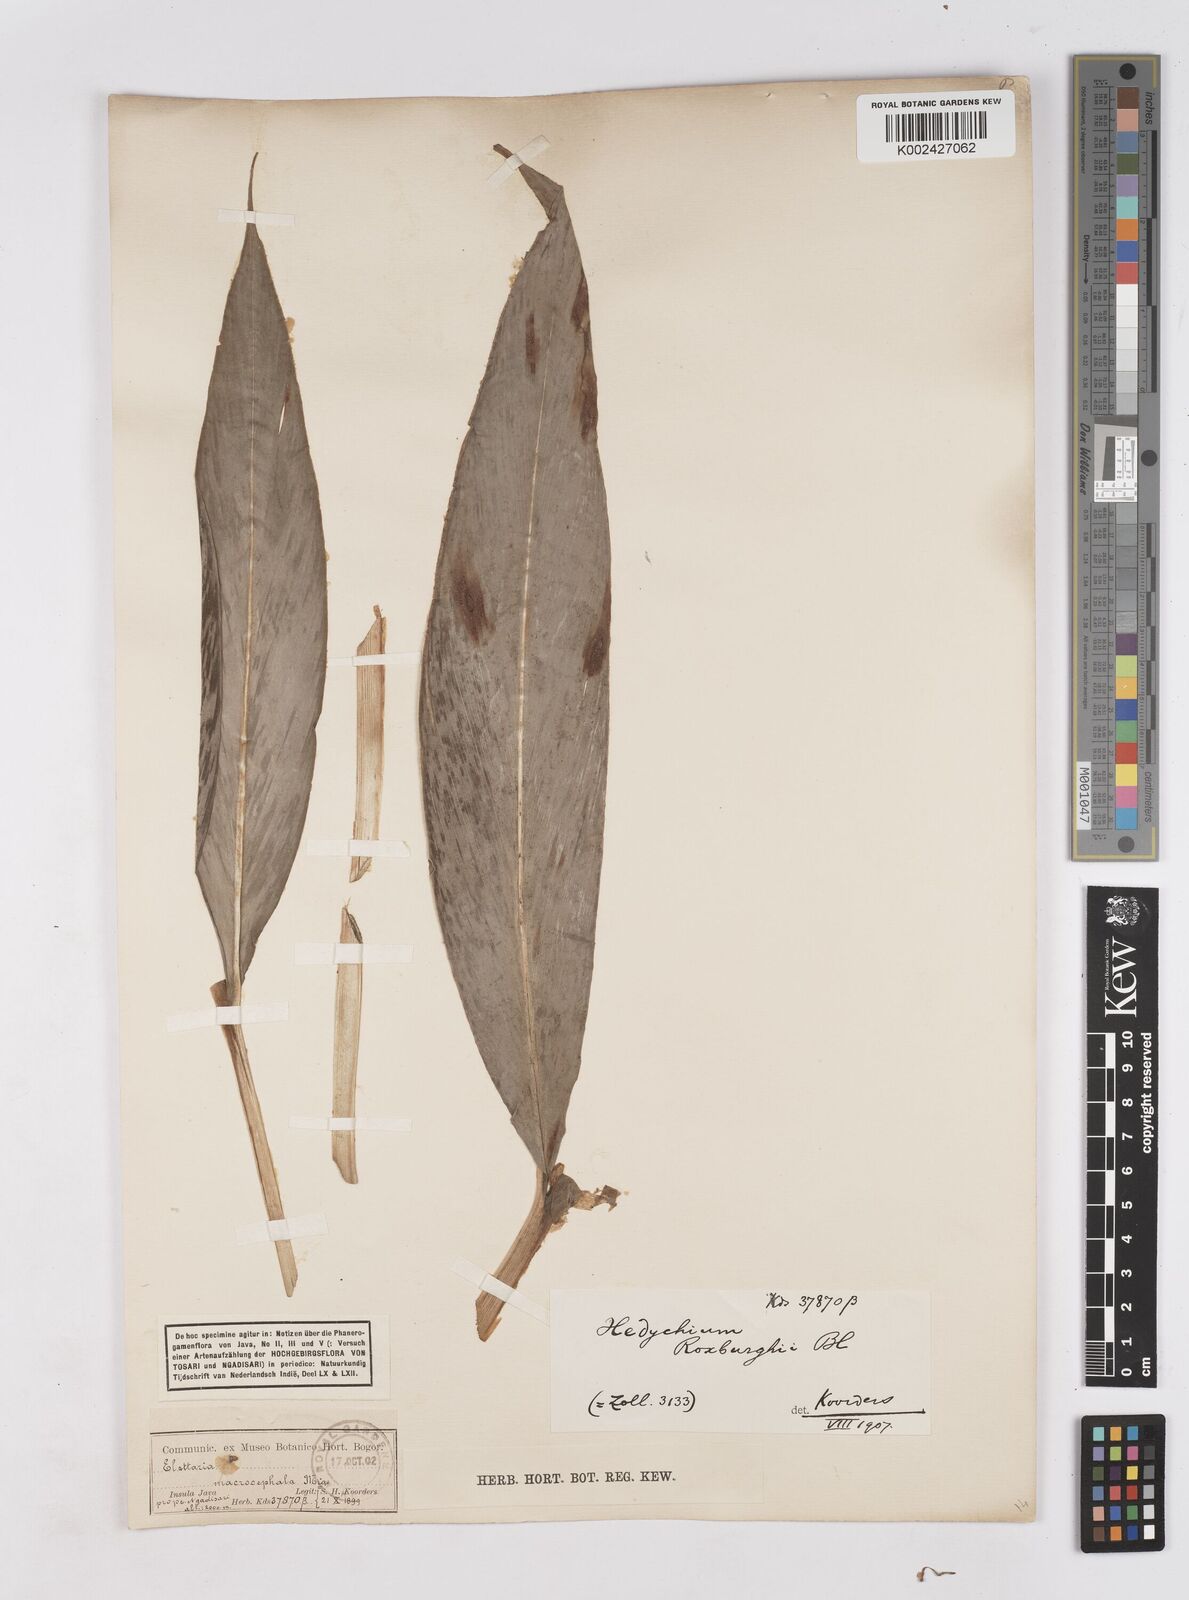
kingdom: Plantae
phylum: Tracheophyta
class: Liliopsida
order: Zingiberales
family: Zingiberaceae
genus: Hedychium
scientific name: Hedychium roxburghii
